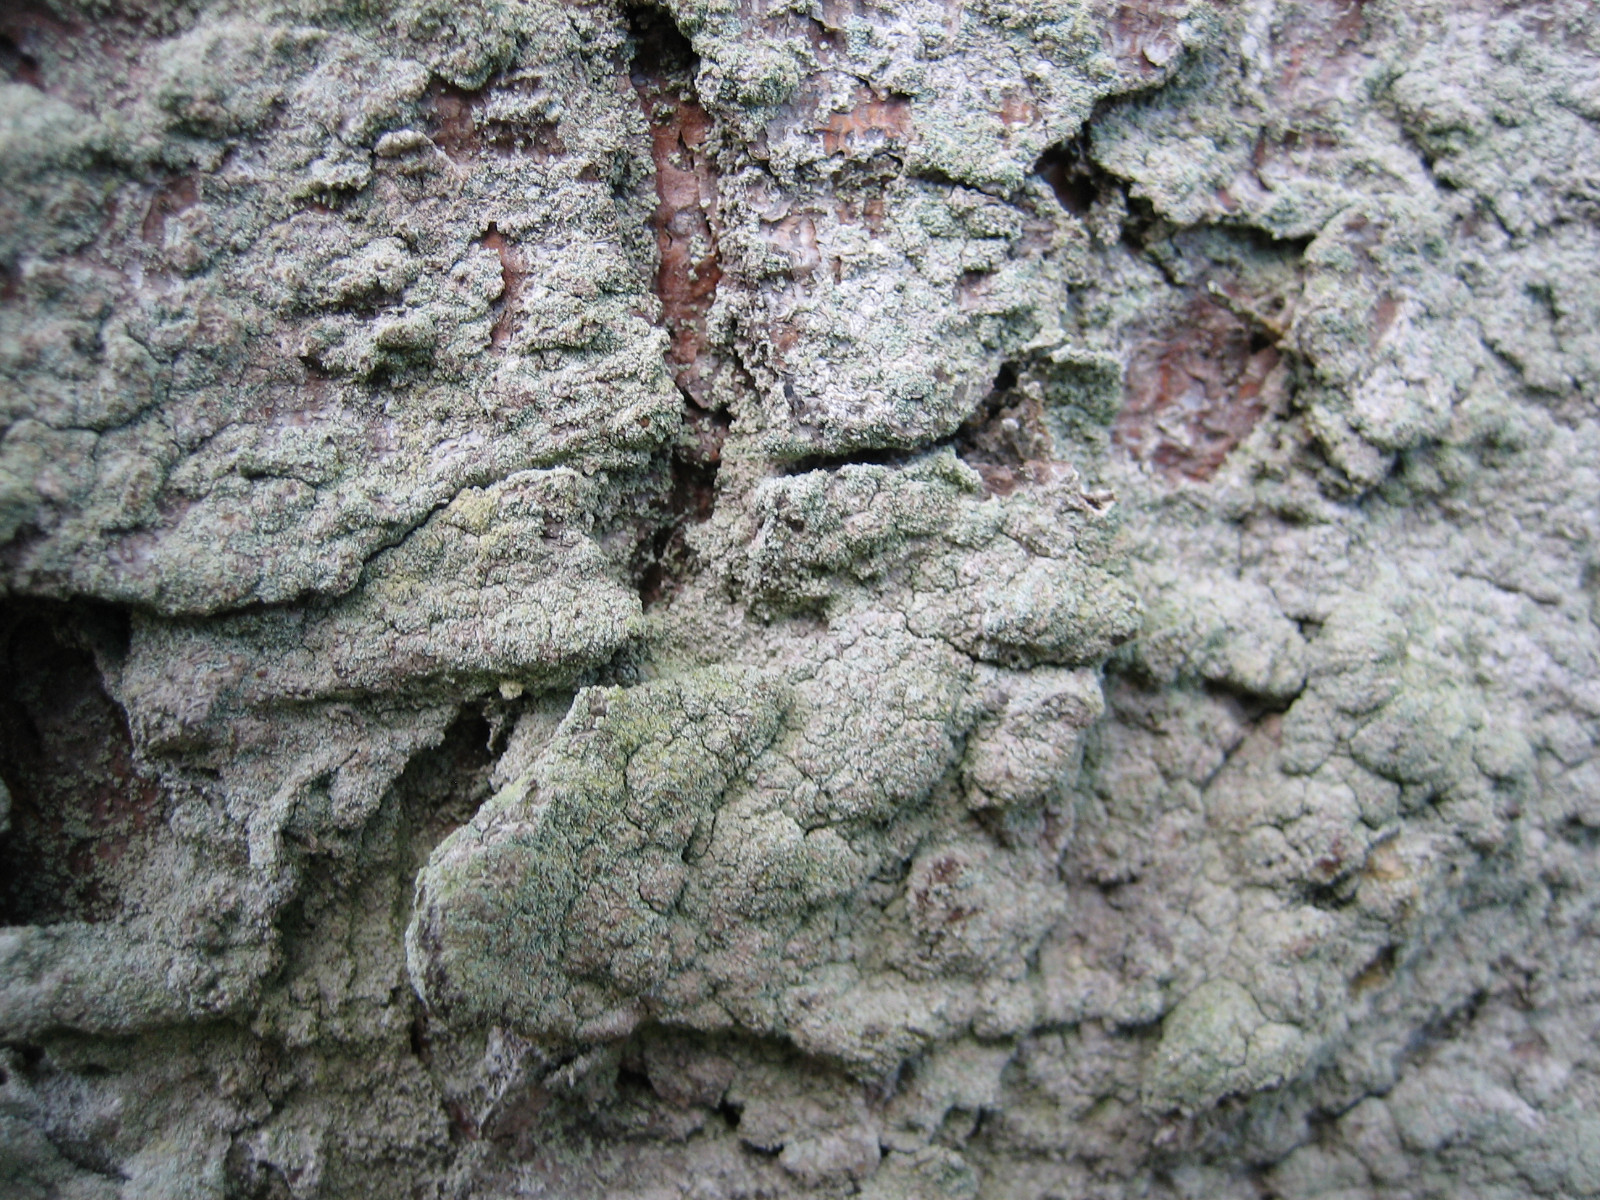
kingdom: Fungi
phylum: Ascomycota
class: Lecanoromycetes
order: Lecanorales
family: Stereocaulaceae
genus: Lepraria
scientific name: Lepraria incana
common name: almindelig støvlav
